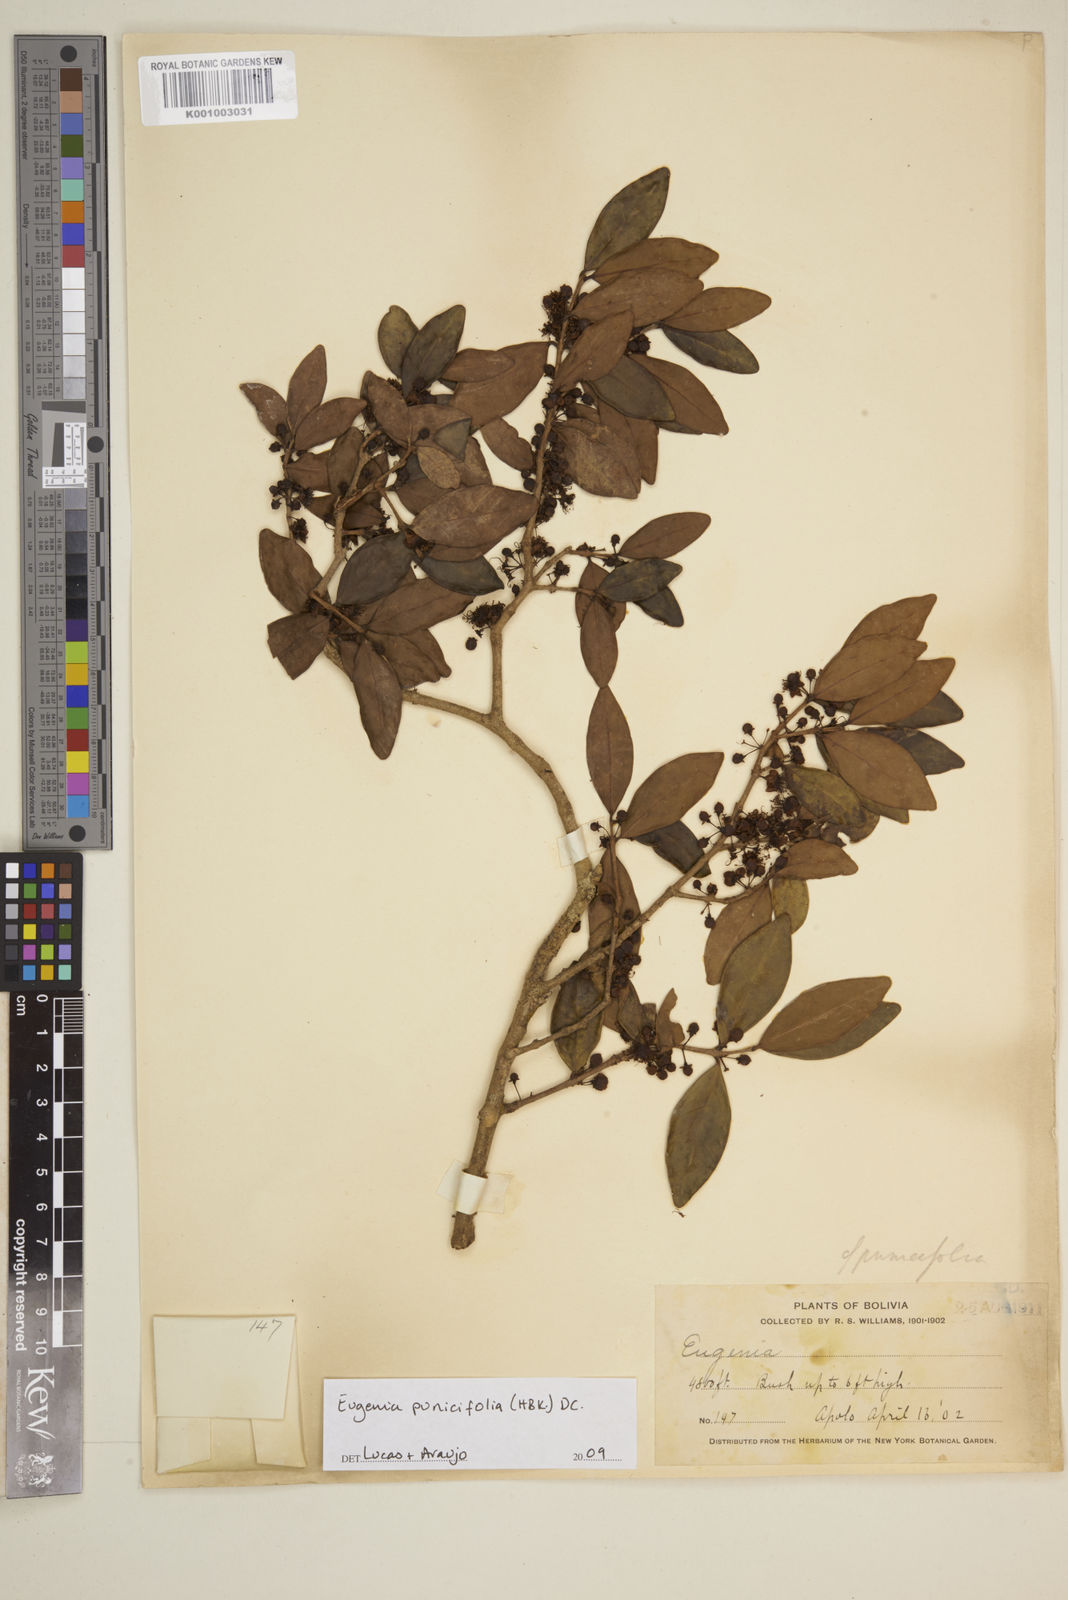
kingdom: Plantae
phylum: Tracheophyta
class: Magnoliopsida
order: Myrtales
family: Myrtaceae
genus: Eugenia
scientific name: Eugenia punicifolia
